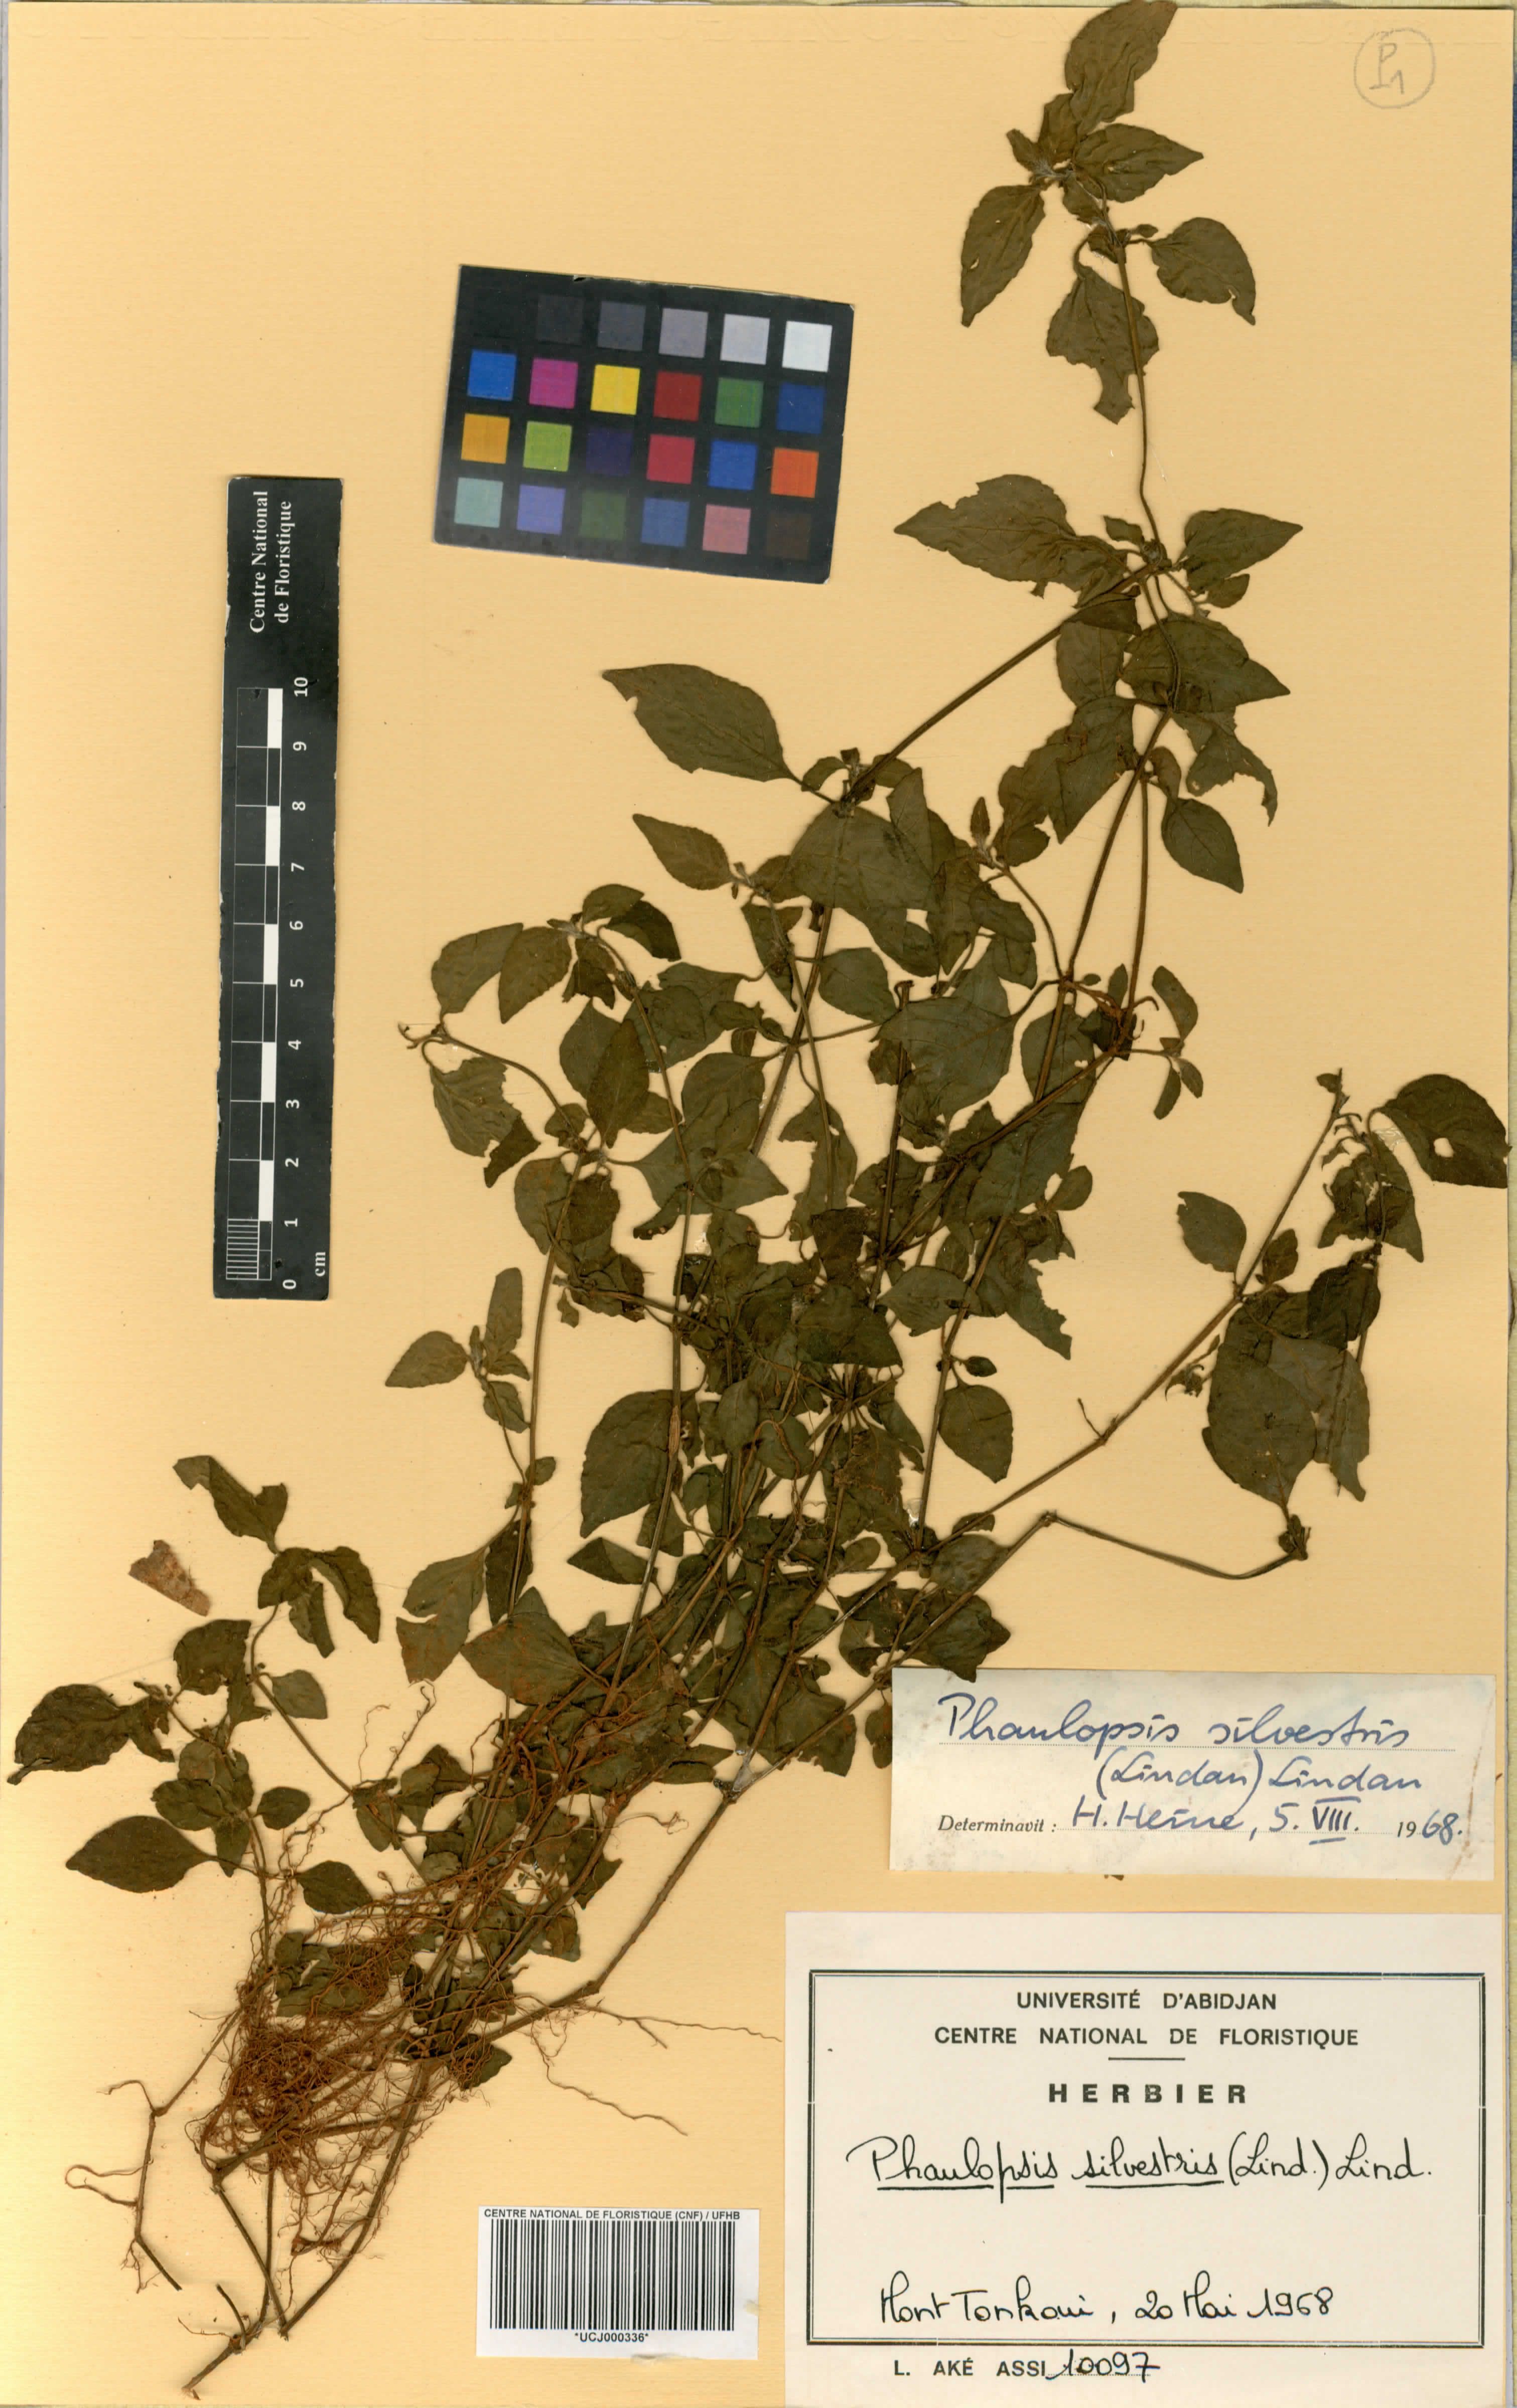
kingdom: Plantae
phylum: Tracheophyta
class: Magnoliopsida
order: Lamiales
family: Acanthaceae
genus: Phaulopsis
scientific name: Phaulopsis angolana
